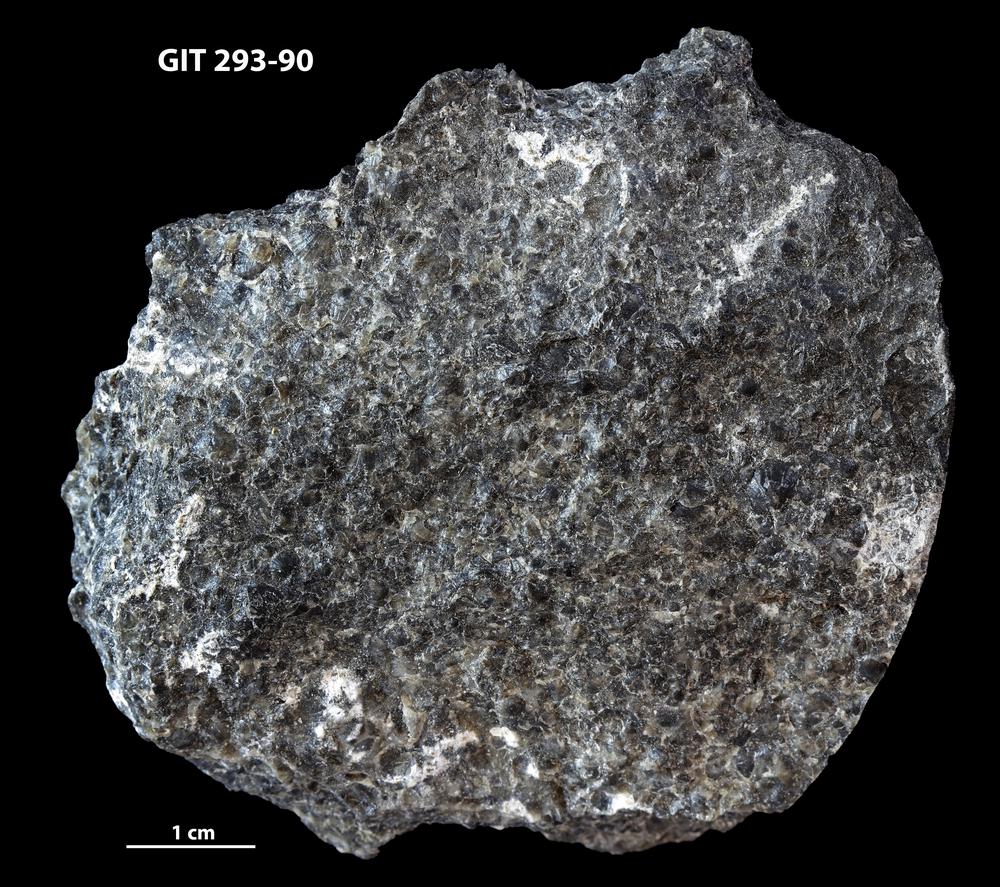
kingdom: Animalia
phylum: Brachiopoda
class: Rhynchonellata
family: Clitambonitidae
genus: Clitambonites
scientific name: Clitambonites
